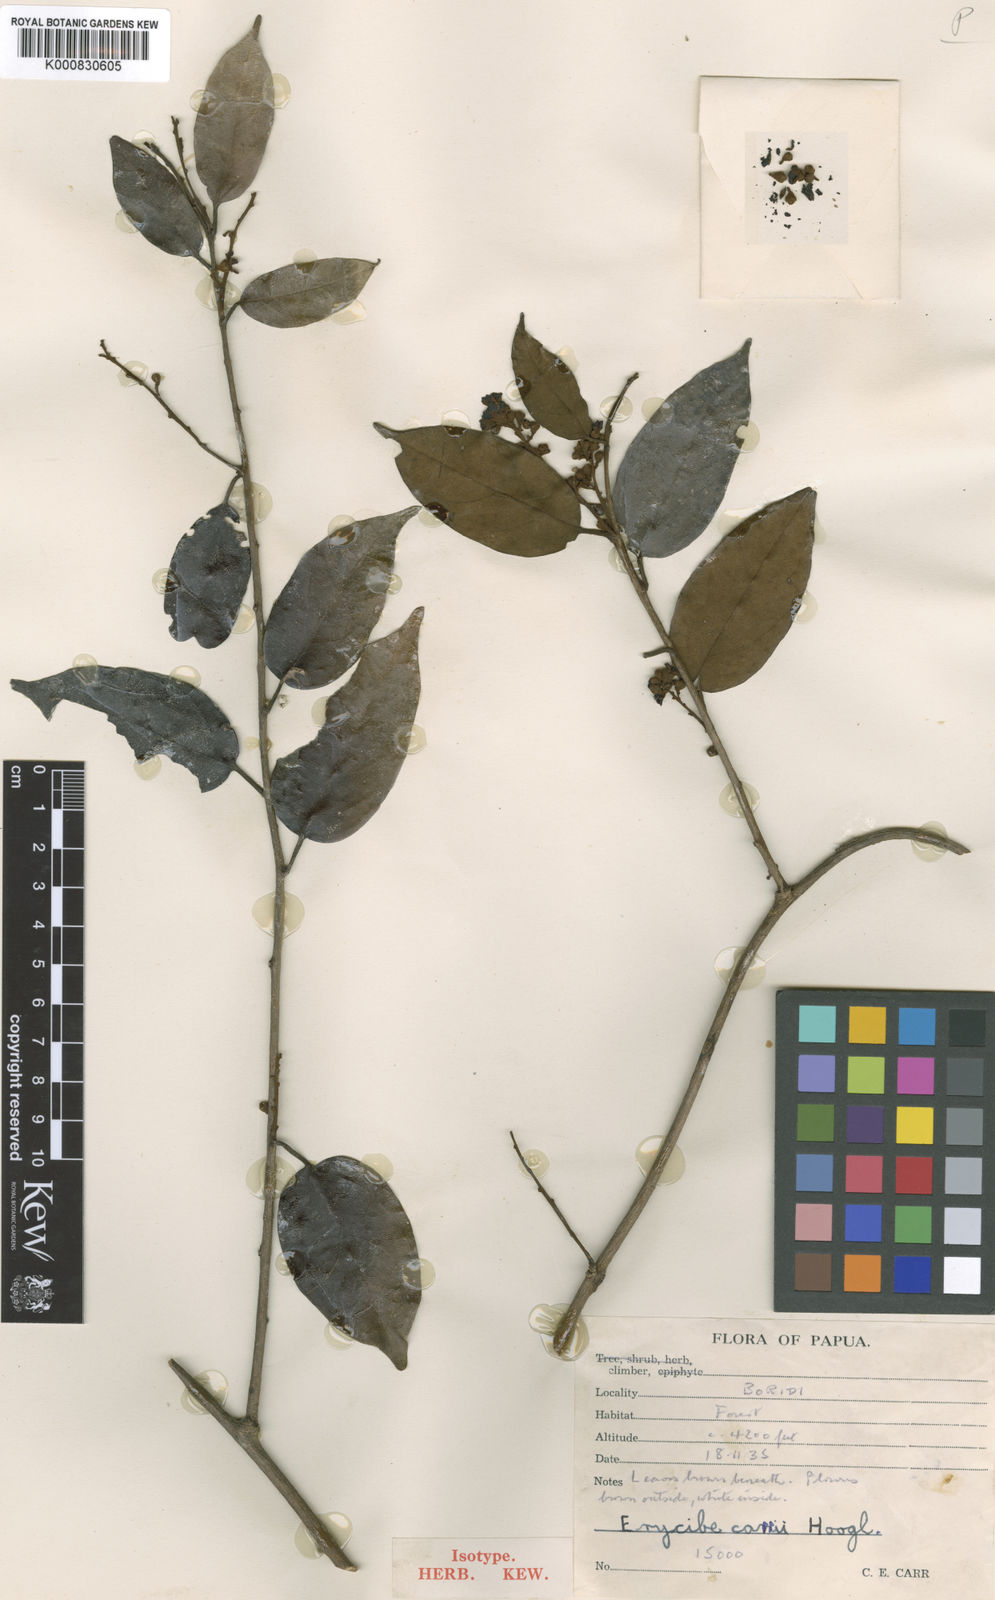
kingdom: Plantae
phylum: Tracheophyta
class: Magnoliopsida
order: Solanales
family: Convolvulaceae
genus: Erycibe
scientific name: Erycibe carrii
